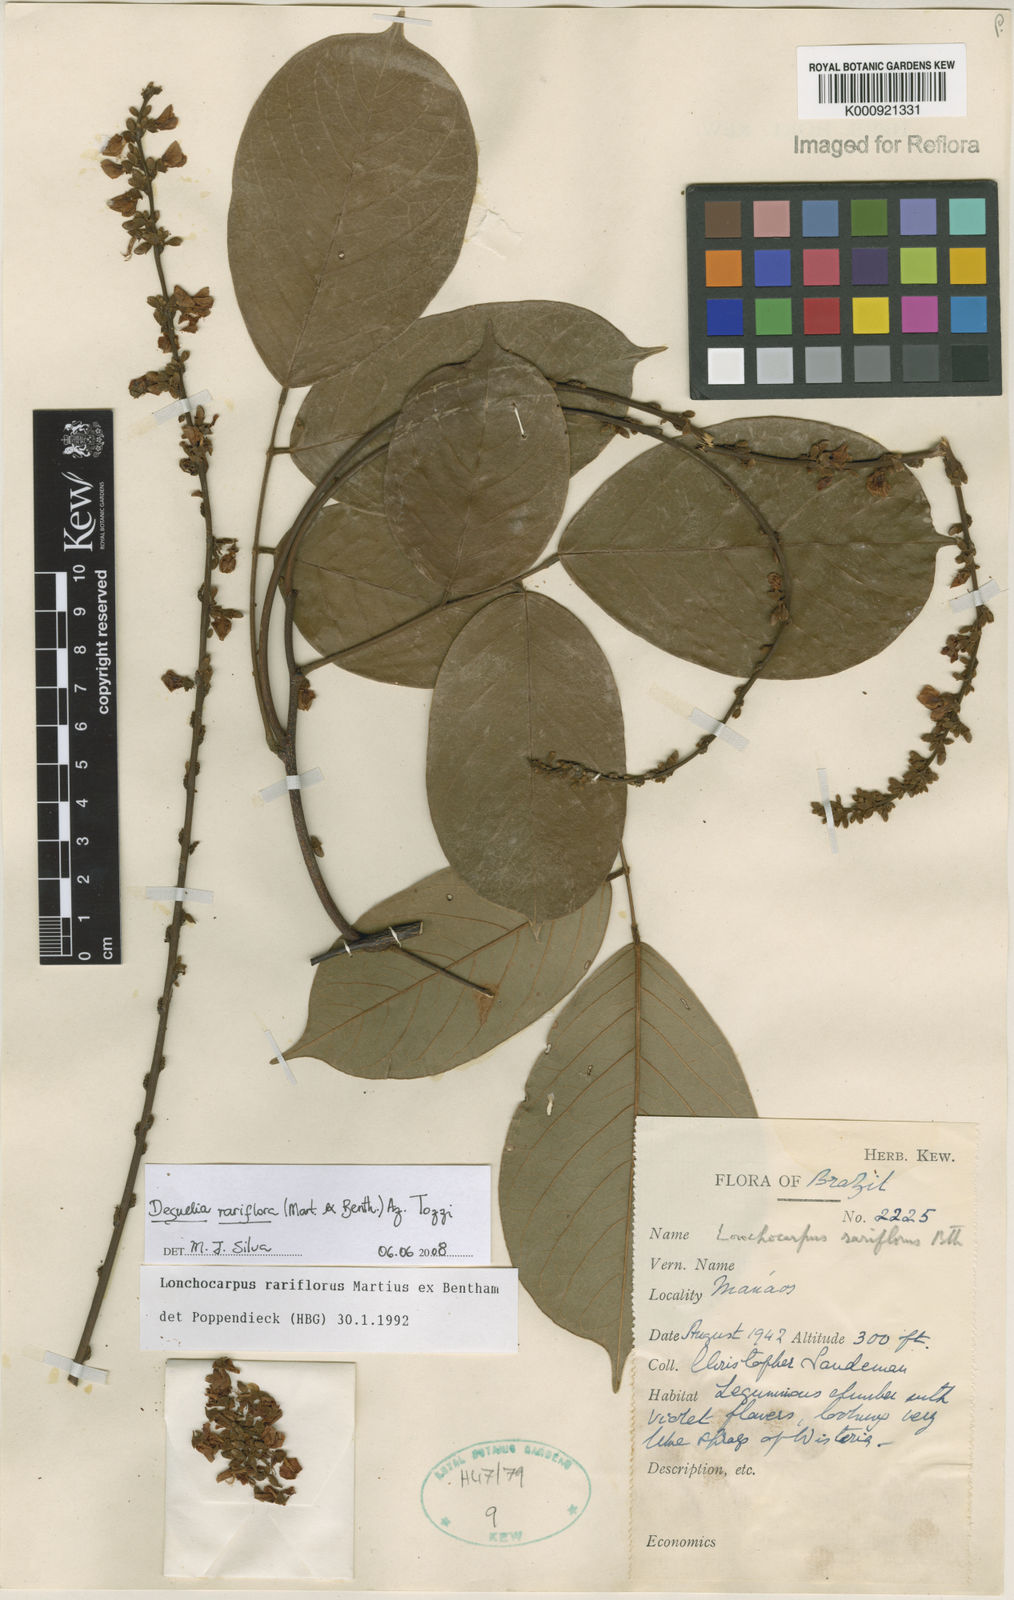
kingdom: Plantae
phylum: Tracheophyta
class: Magnoliopsida
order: Fabales
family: Fabaceae
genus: Deguelia
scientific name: Deguelia
